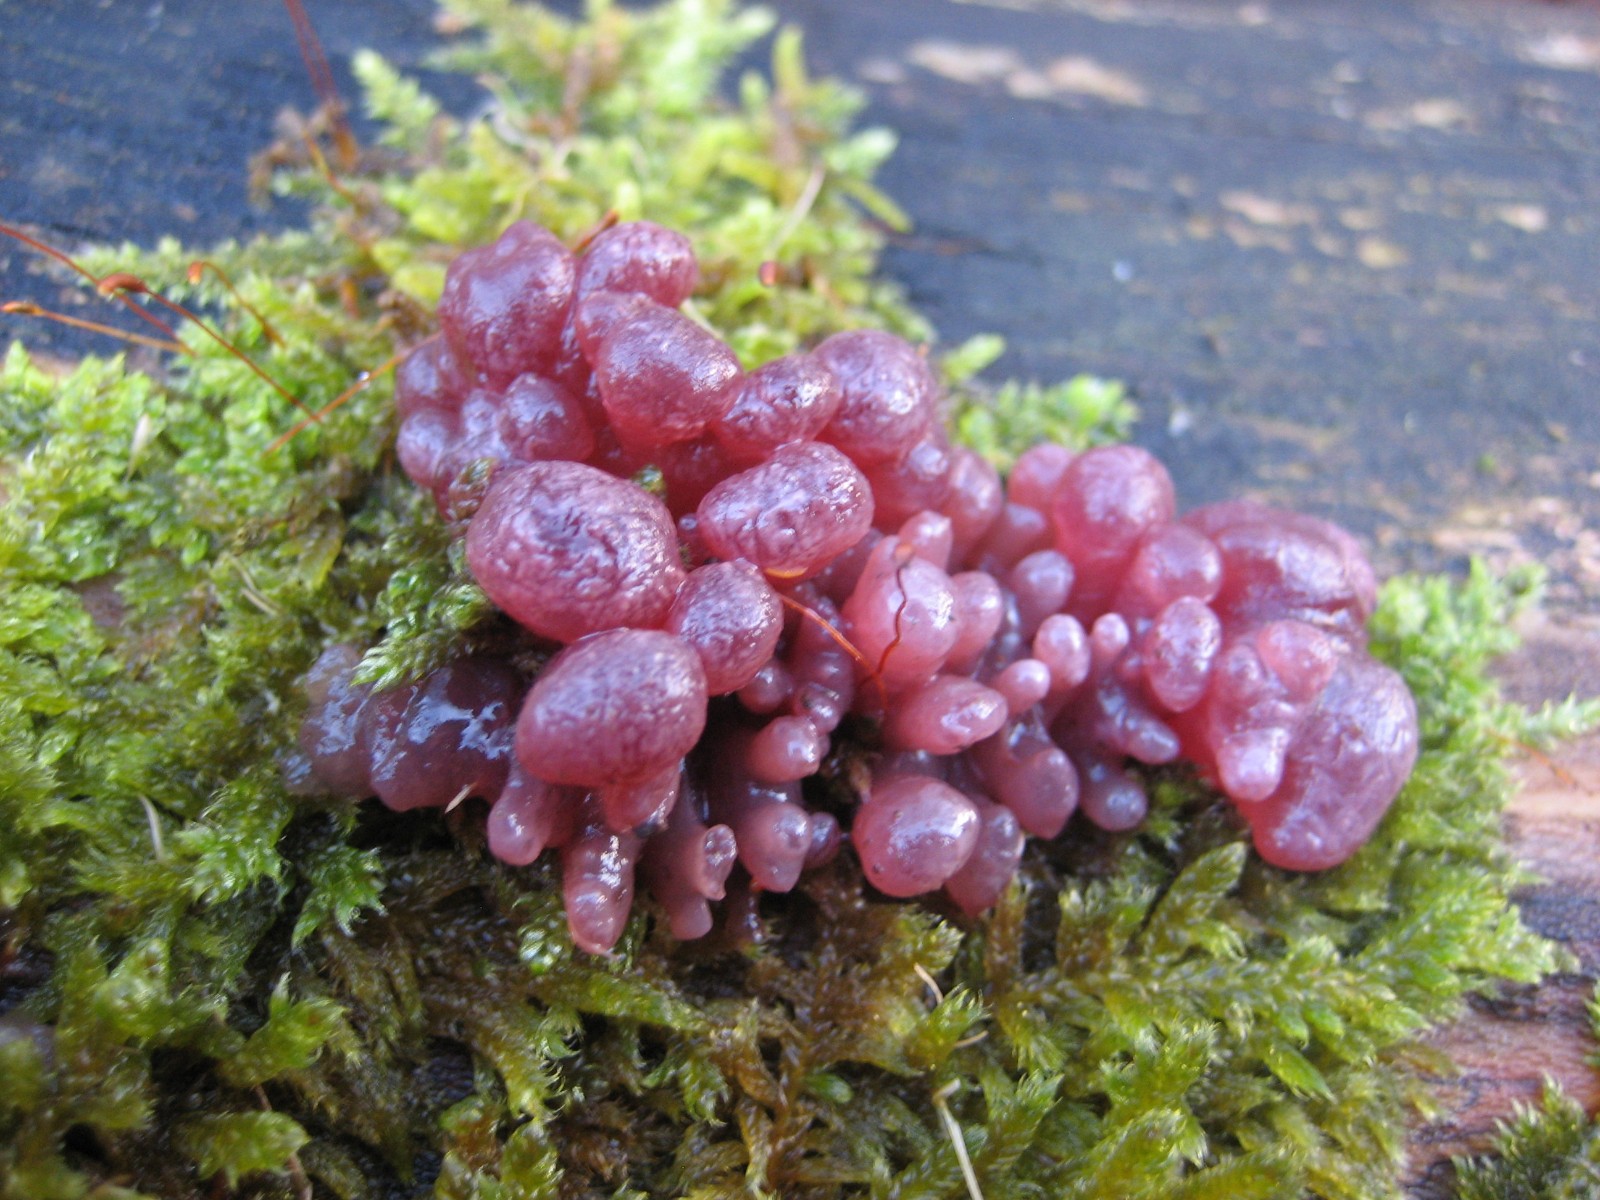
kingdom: Fungi
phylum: Ascomycota
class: Leotiomycetes
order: Helotiales
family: Gelatinodiscaceae
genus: Ascocoryne
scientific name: Ascocoryne sarcoides
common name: rødlilla sejskive
